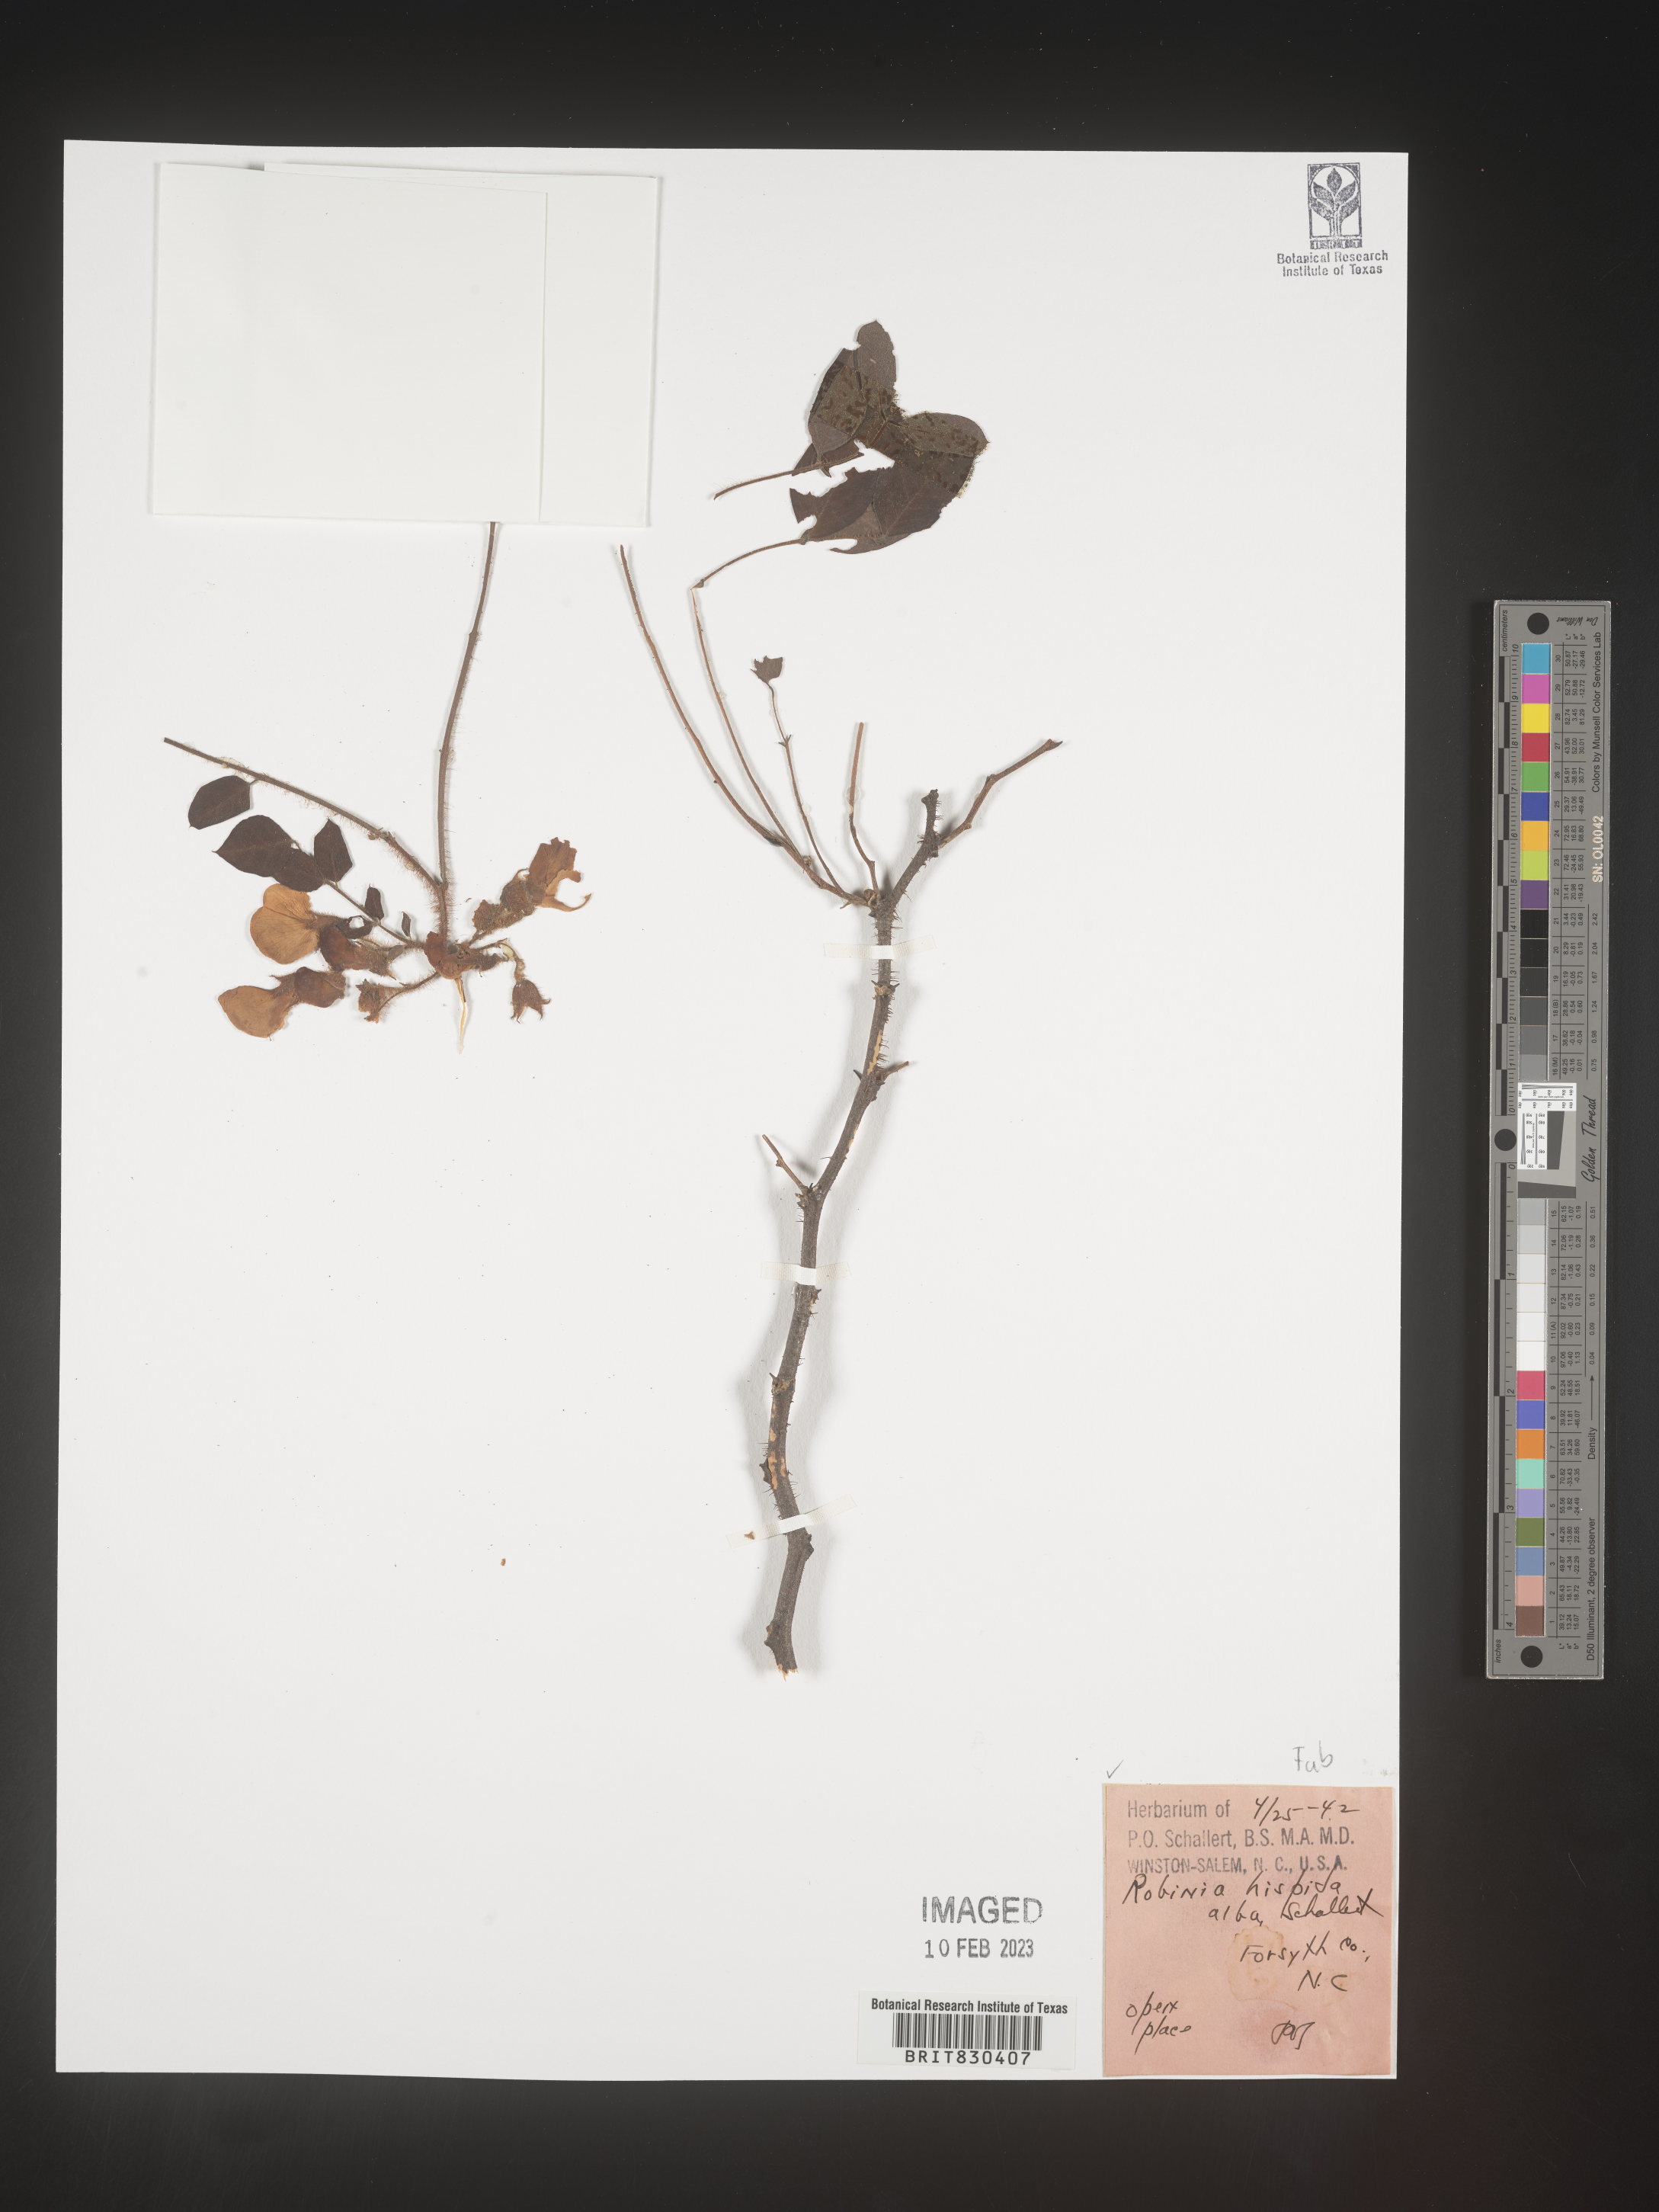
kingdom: Plantae
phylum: Tracheophyta
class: Magnoliopsida
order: Fabales
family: Fabaceae
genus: Robinia
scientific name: Robinia hispida
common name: Bristly locust
